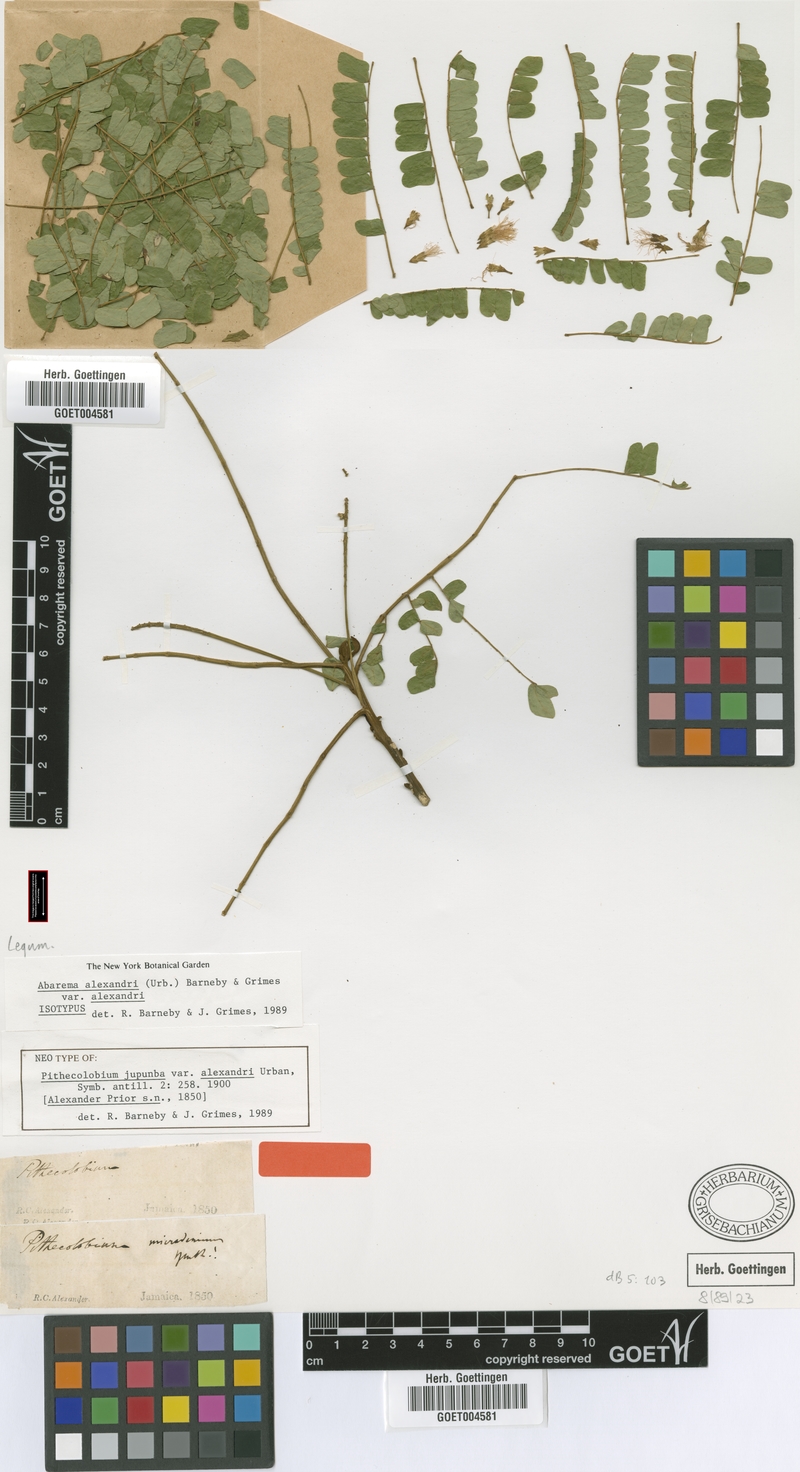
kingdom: Plantae
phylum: Tracheophyta
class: Magnoliopsida
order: Fabales
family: Fabaceae
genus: Jupunba
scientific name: Jupunba alexandri
